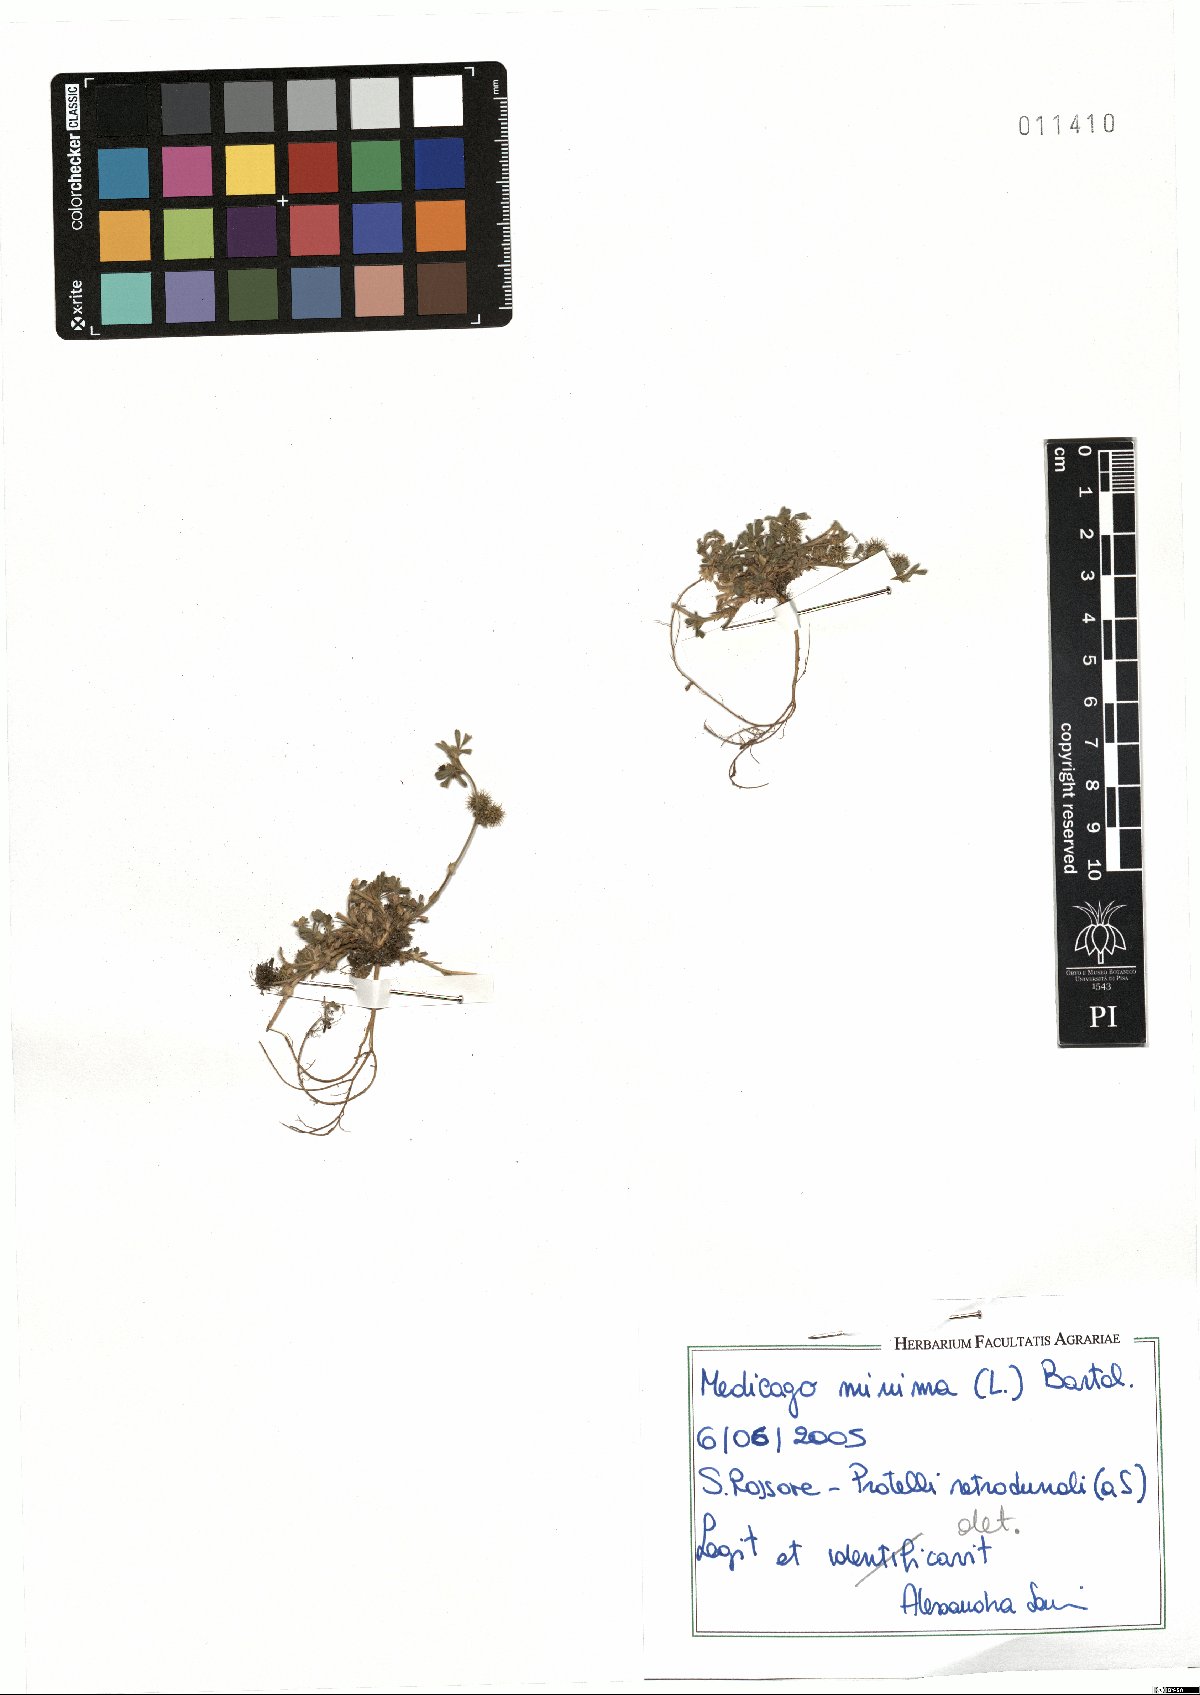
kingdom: Plantae
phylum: Tracheophyta
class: Magnoliopsida
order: Fabales
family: Fabaceae
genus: Medicago
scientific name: Medicago minima
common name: Little bur-clover
